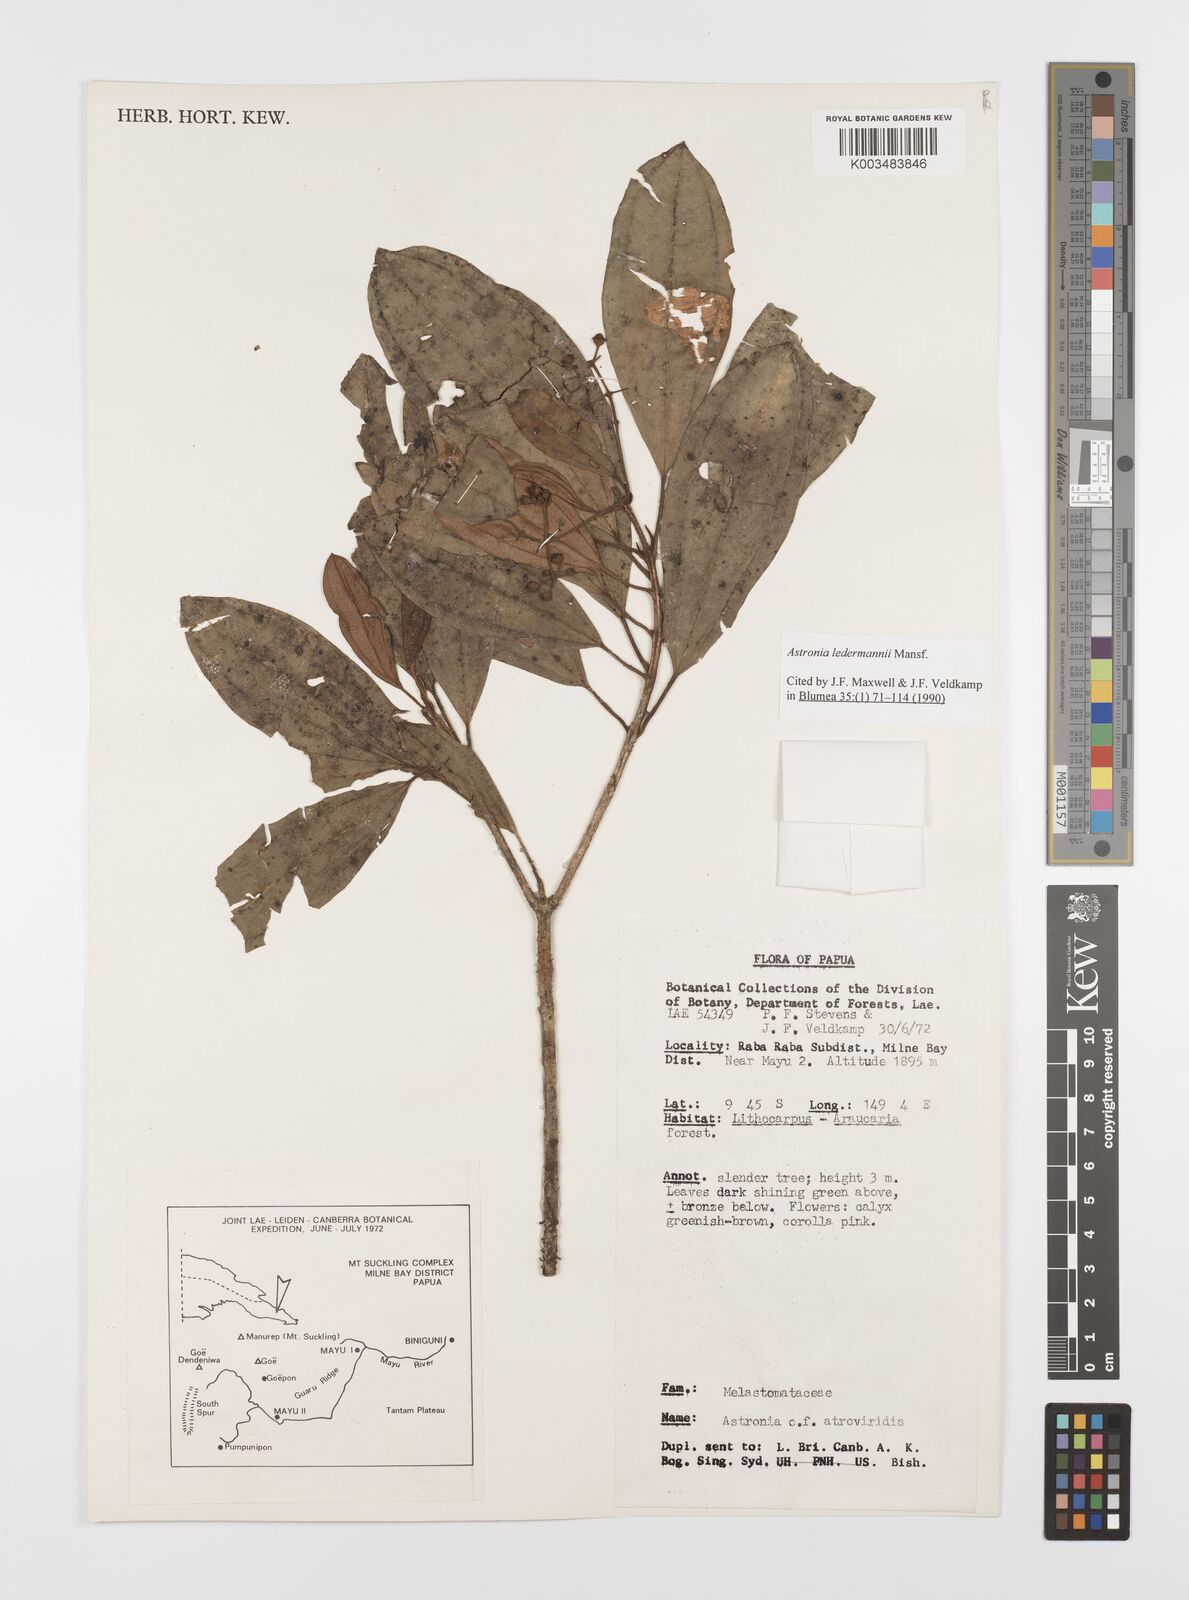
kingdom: Plantae
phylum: Tracheophyta
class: Magnoliopsida
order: Myrtales
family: Melastomataceae
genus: Astronia
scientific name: Astronia ledermannii
